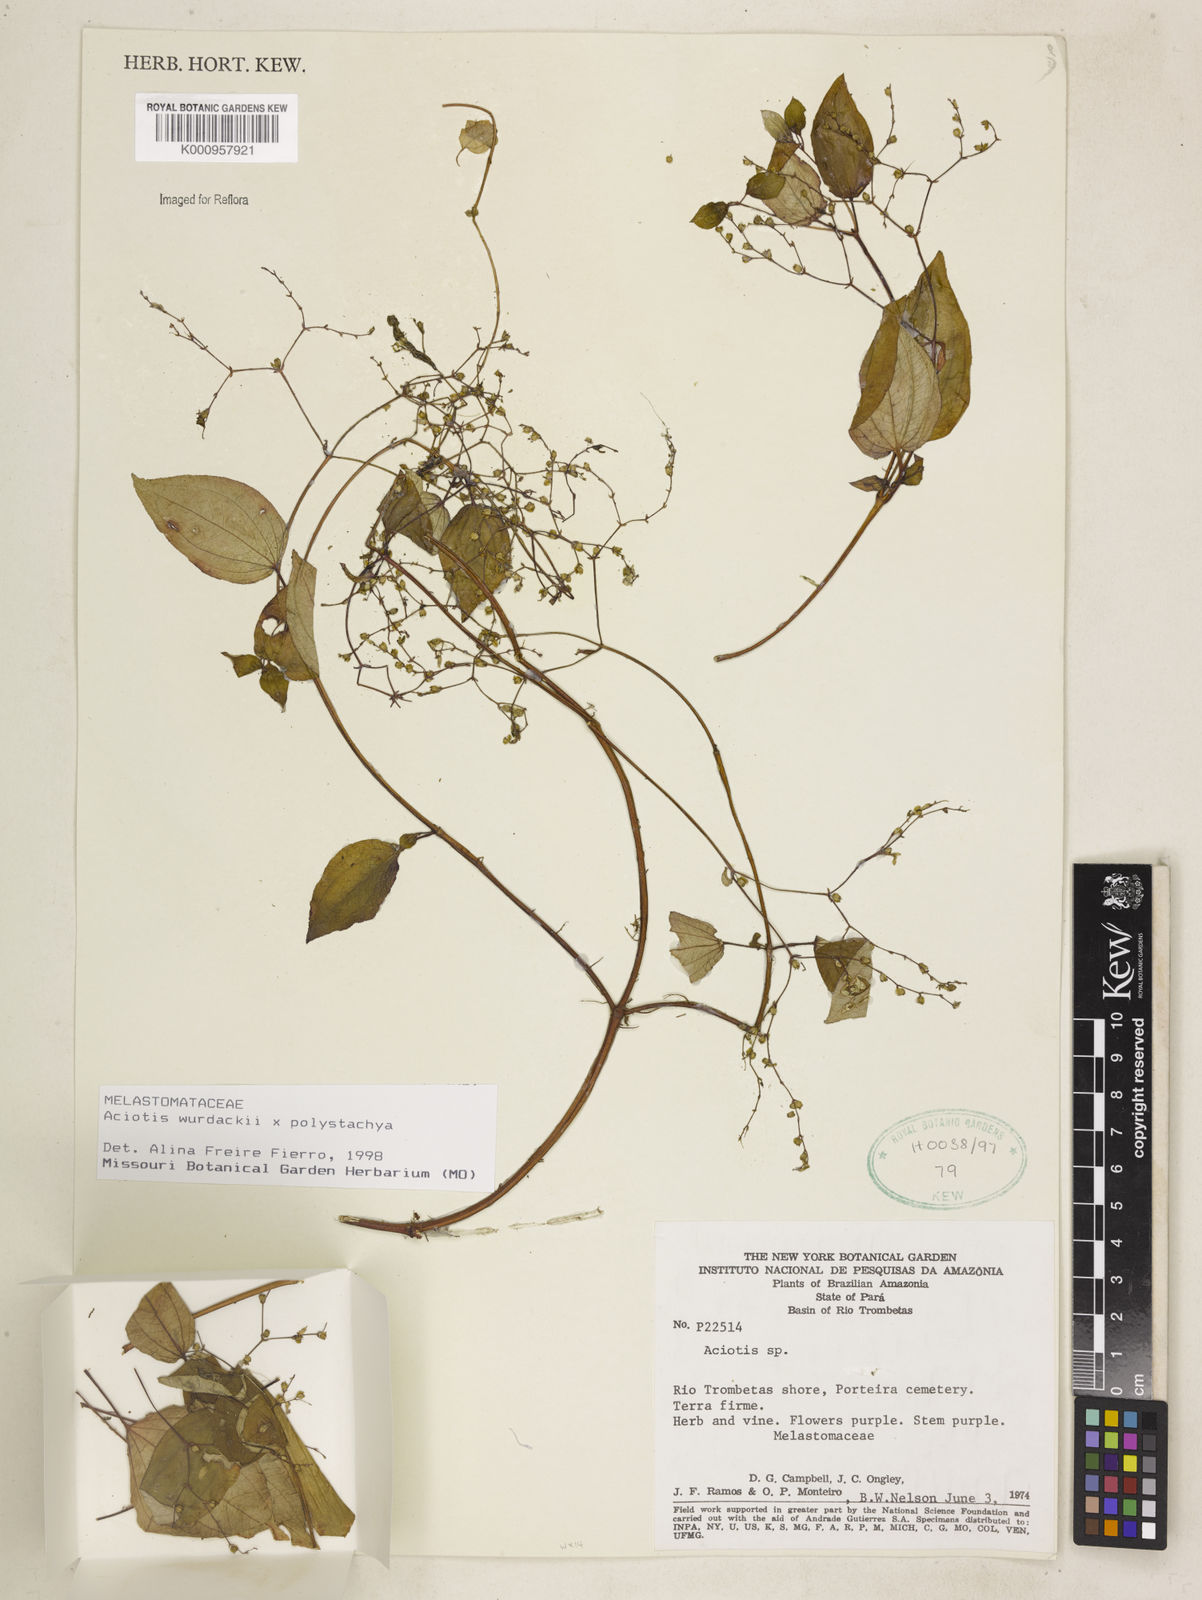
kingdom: Plantae
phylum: Tracheophyta
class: Magnoliopsida
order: Myrtales
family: Melastomataceae
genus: Aciotis
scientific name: Aciotis
